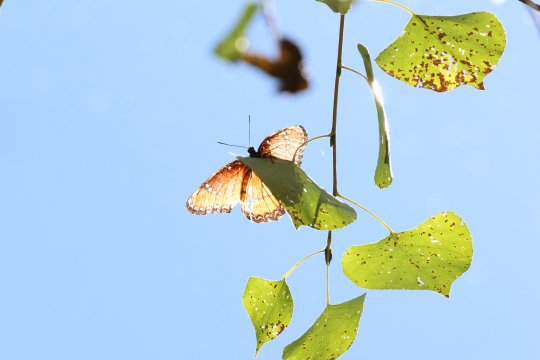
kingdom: Animalia
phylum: Arthropoda
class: Insecta
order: Lepidoptera
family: Nymphalidae
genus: Limenitis
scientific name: Limenitis archippus
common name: Viceroy
